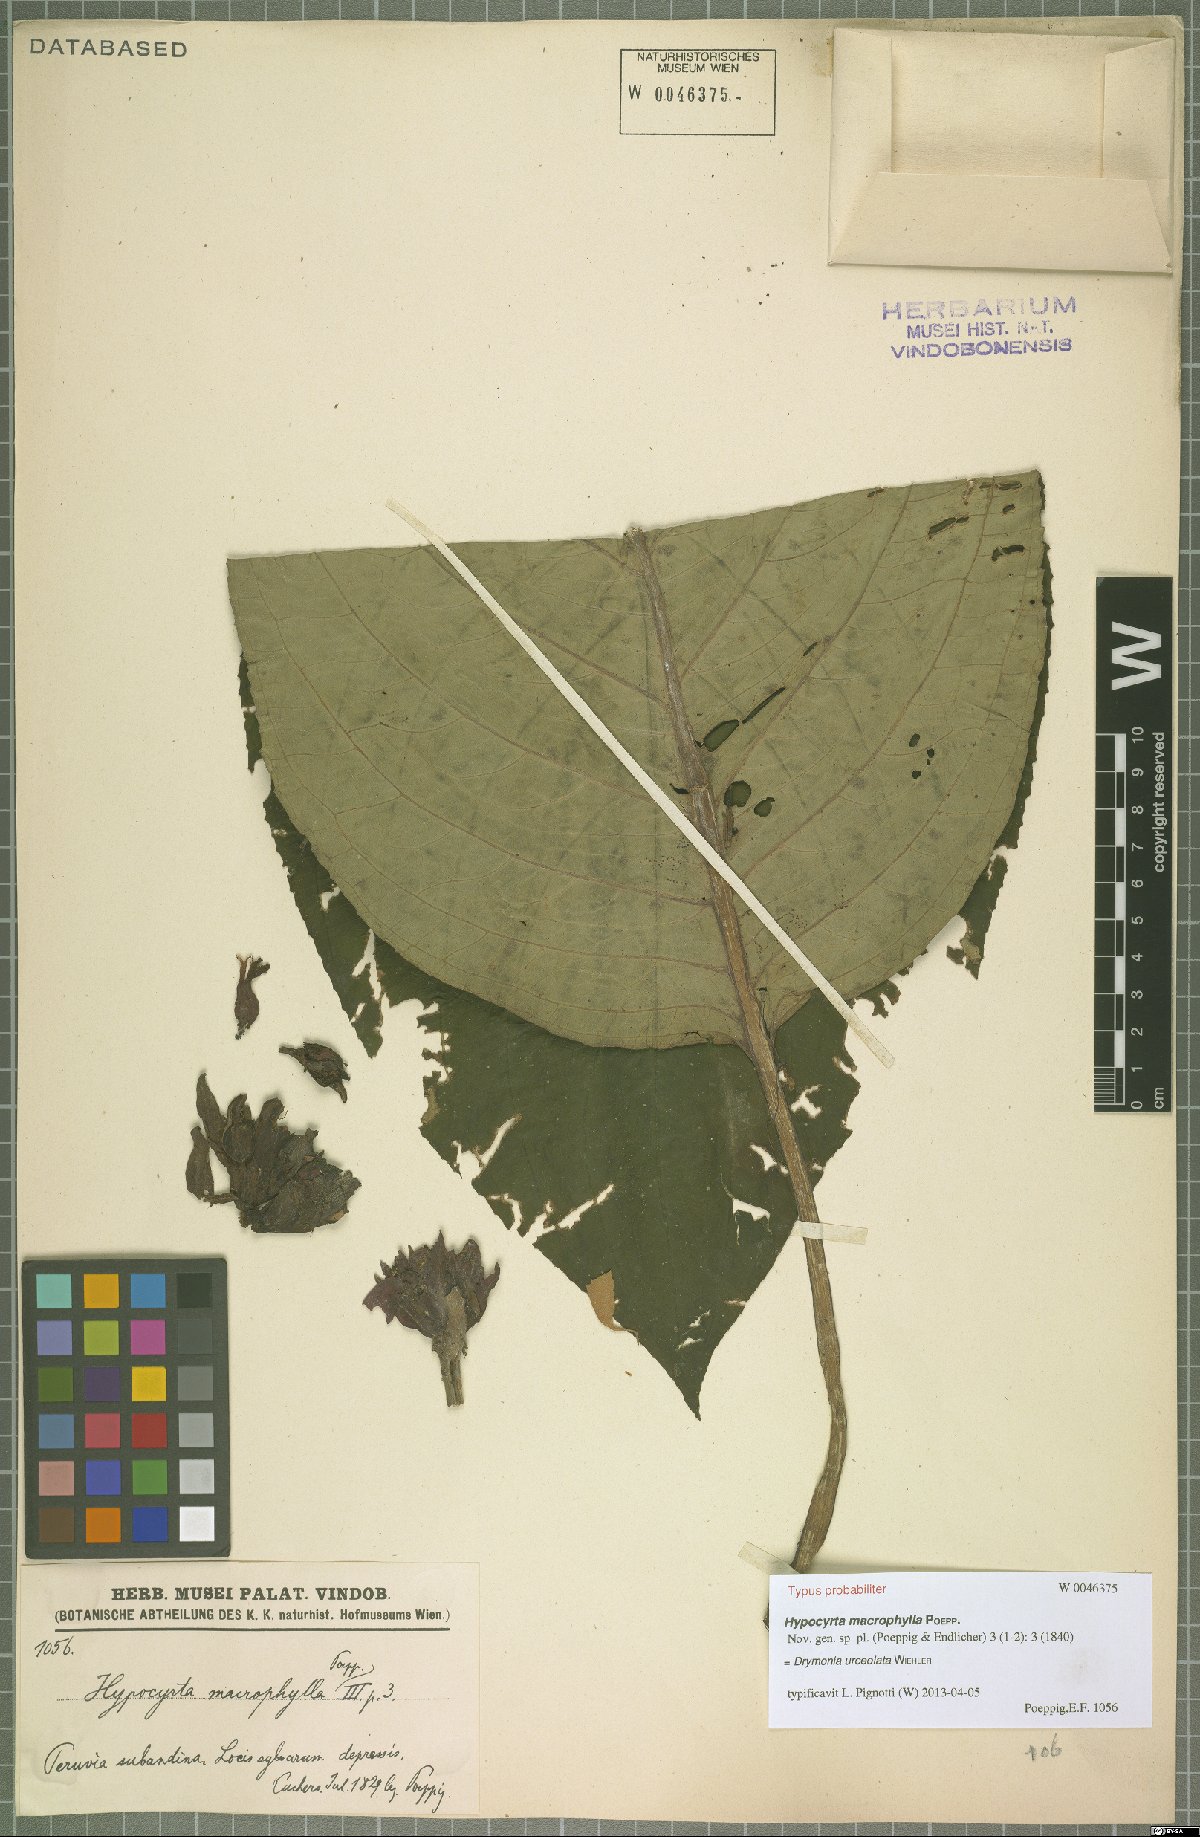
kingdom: Plantae
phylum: Tracheophyta
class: Magnoliopsida
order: Lamiales
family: Gesneriaceae
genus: Drymonia
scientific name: Drymonia urceolata
